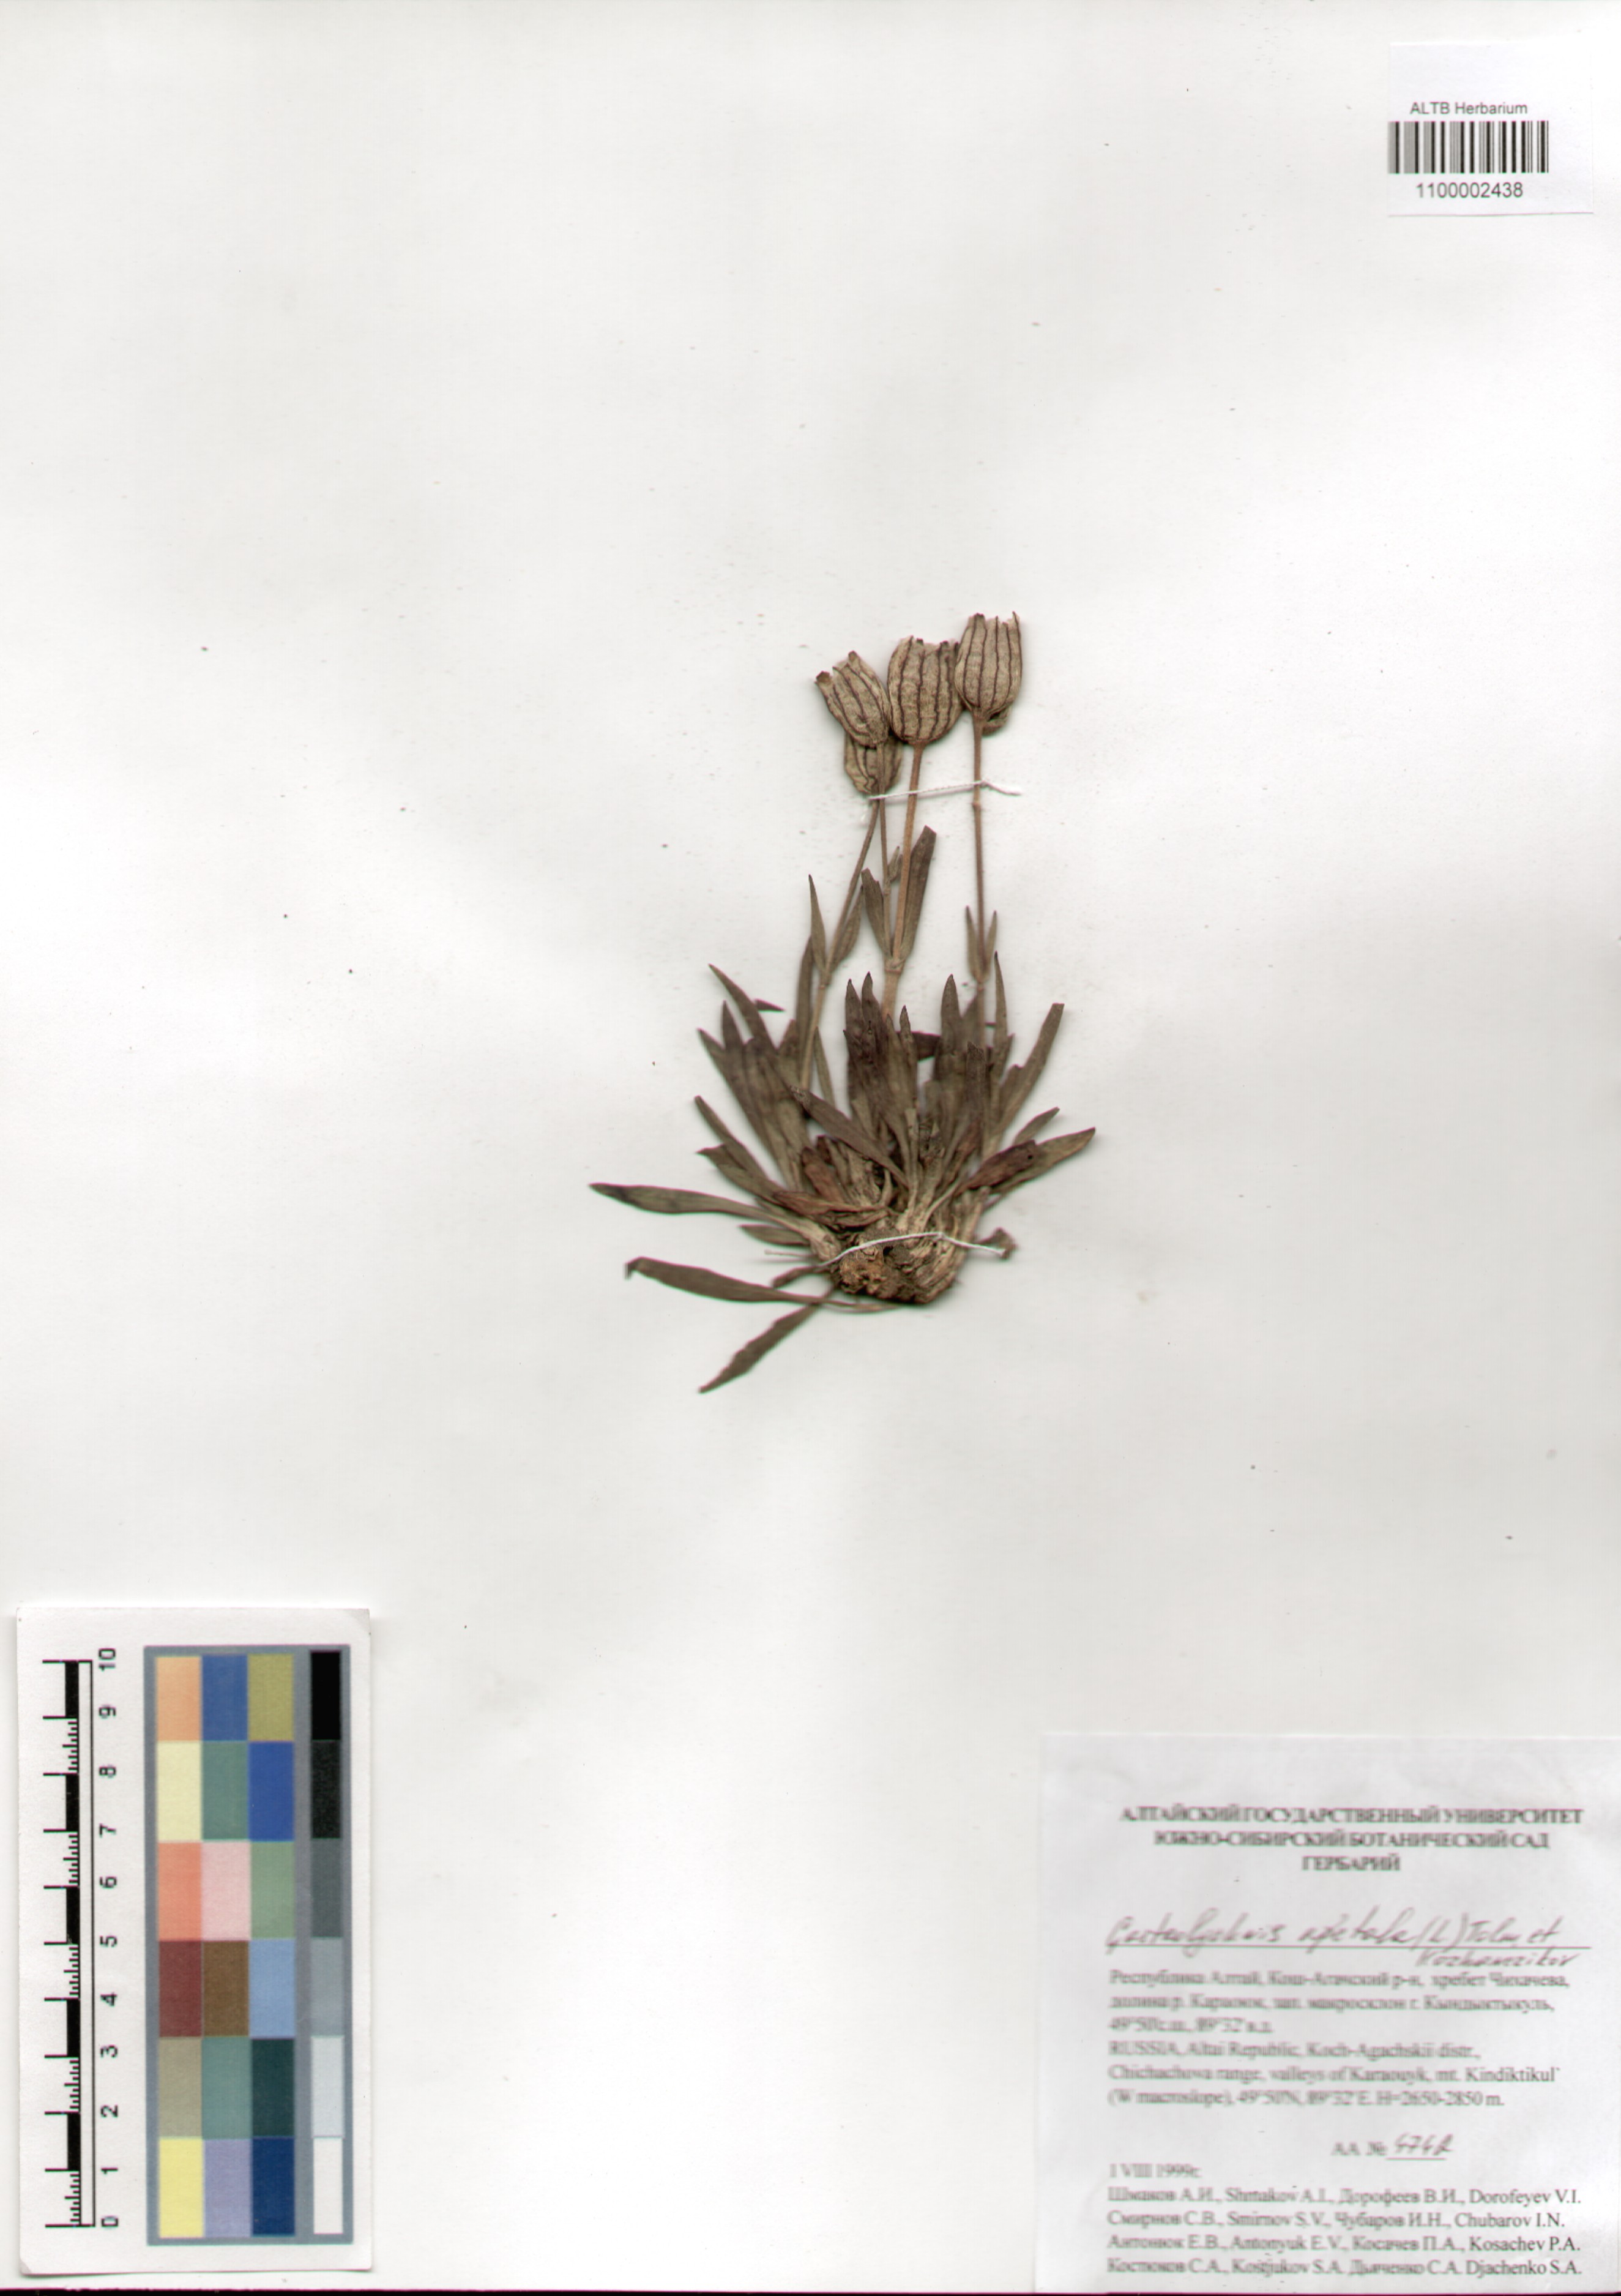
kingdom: Plantae
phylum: Tracheophyta
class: Magnoliopsida
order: Caryophyllales
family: Caryophyllaceae
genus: Silene
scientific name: Silene wahlbergella
